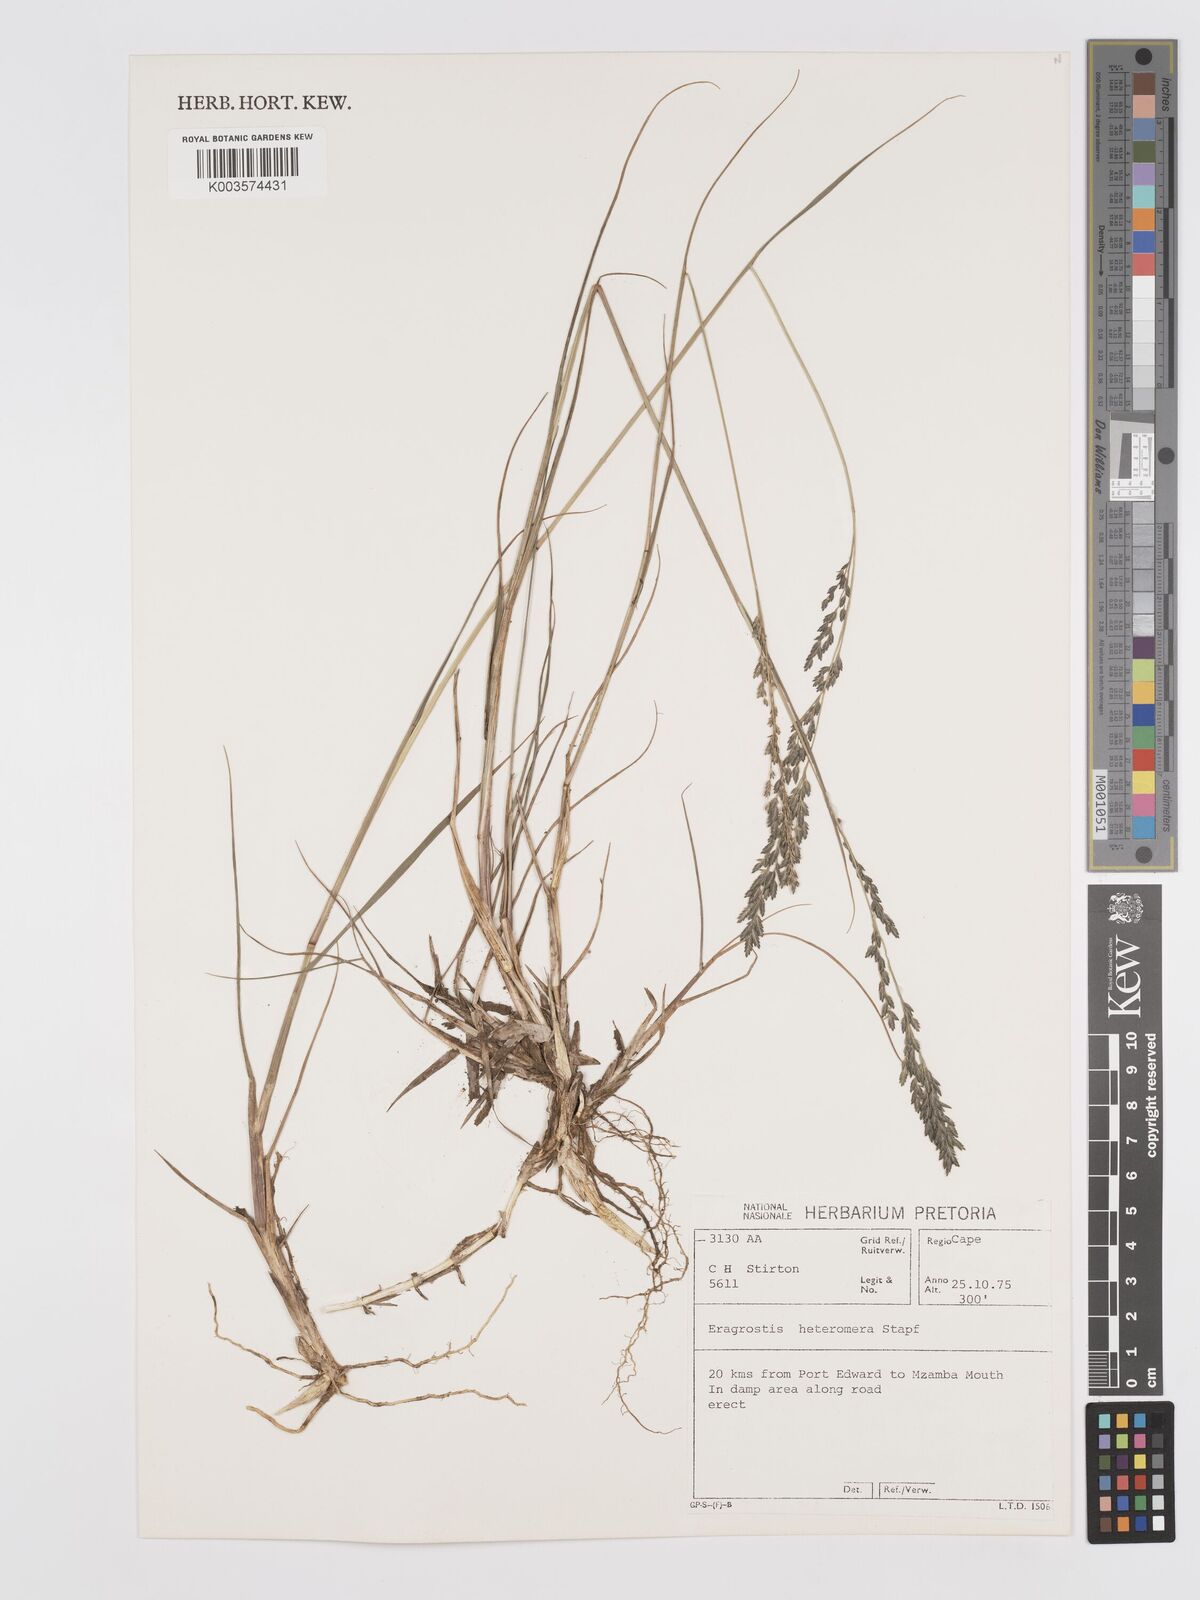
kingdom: Plantae
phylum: Tracheophyta
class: Liliopsida
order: Poales
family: Poaceae
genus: Eragrostis
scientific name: Eragrostis heteromera
